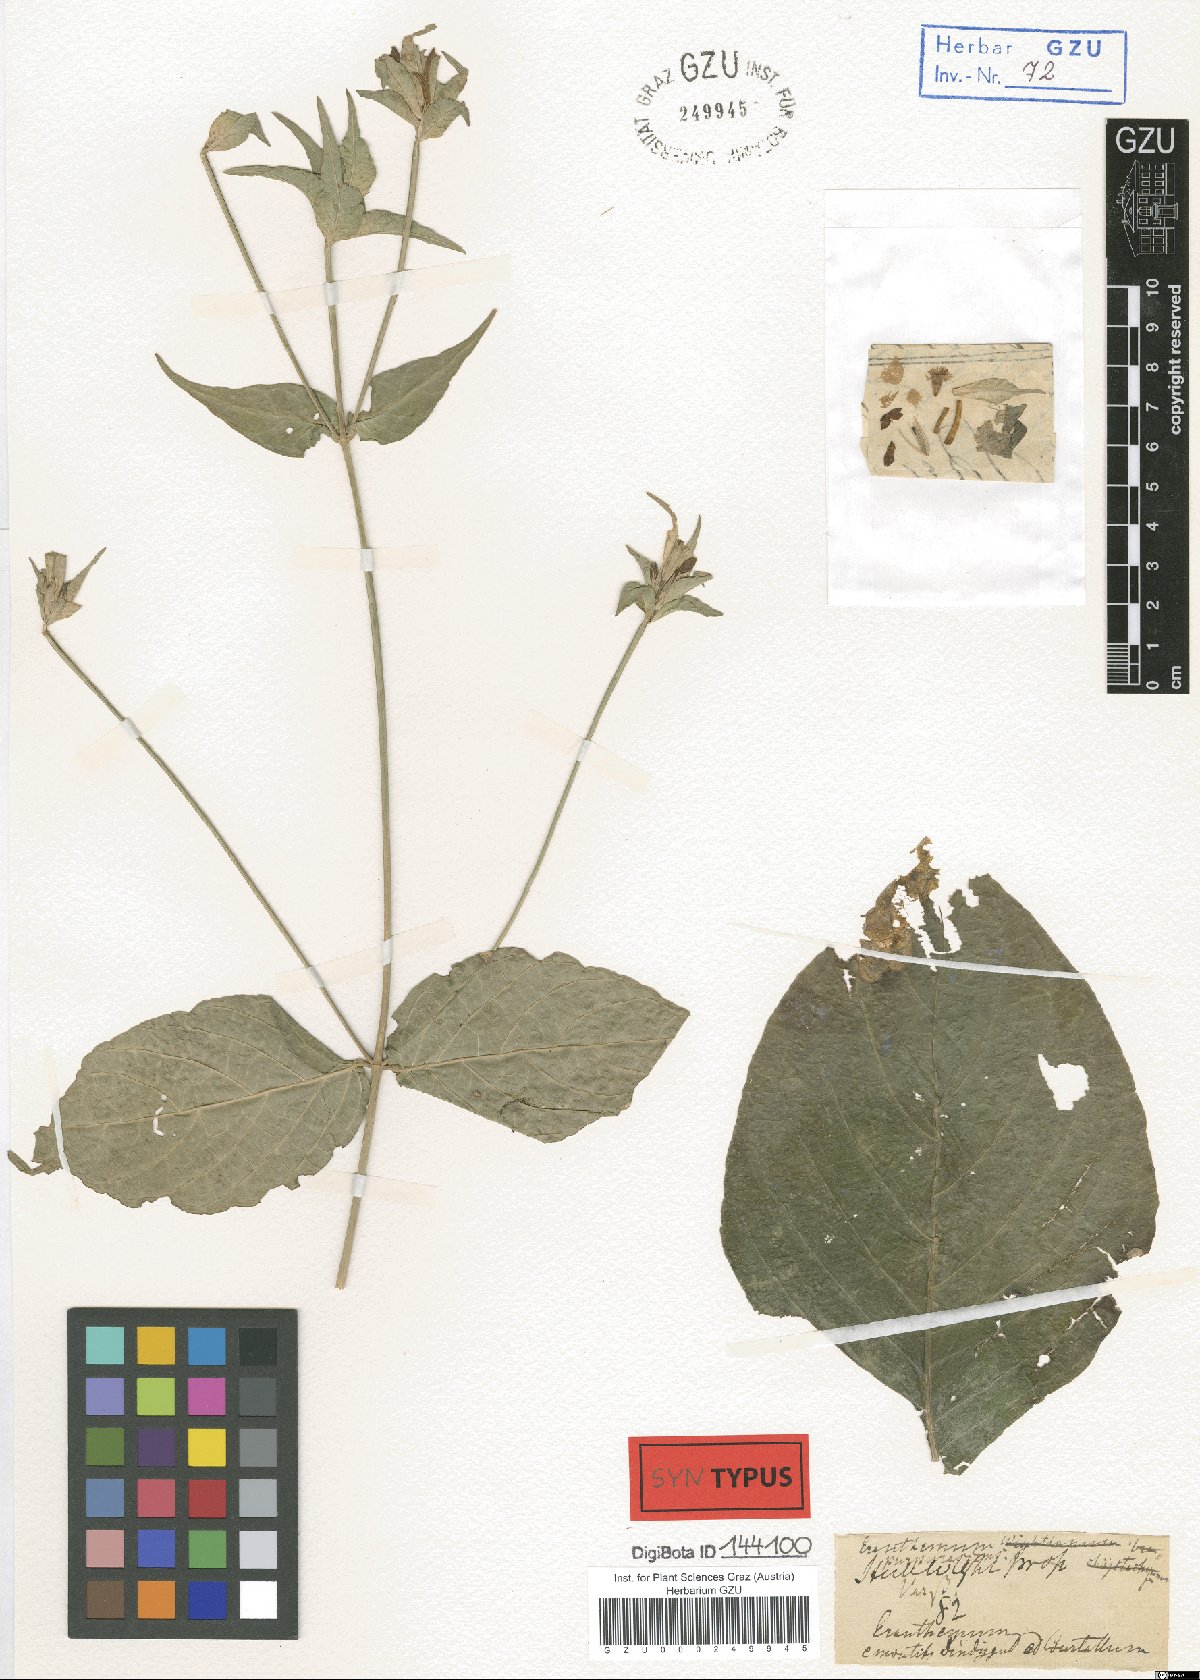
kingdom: Plantae
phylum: Tracheophyta
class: Magnoliopsida
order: Lamiales
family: Acanthaceae
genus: Eranthemum
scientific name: Eranthemum purpurascens
